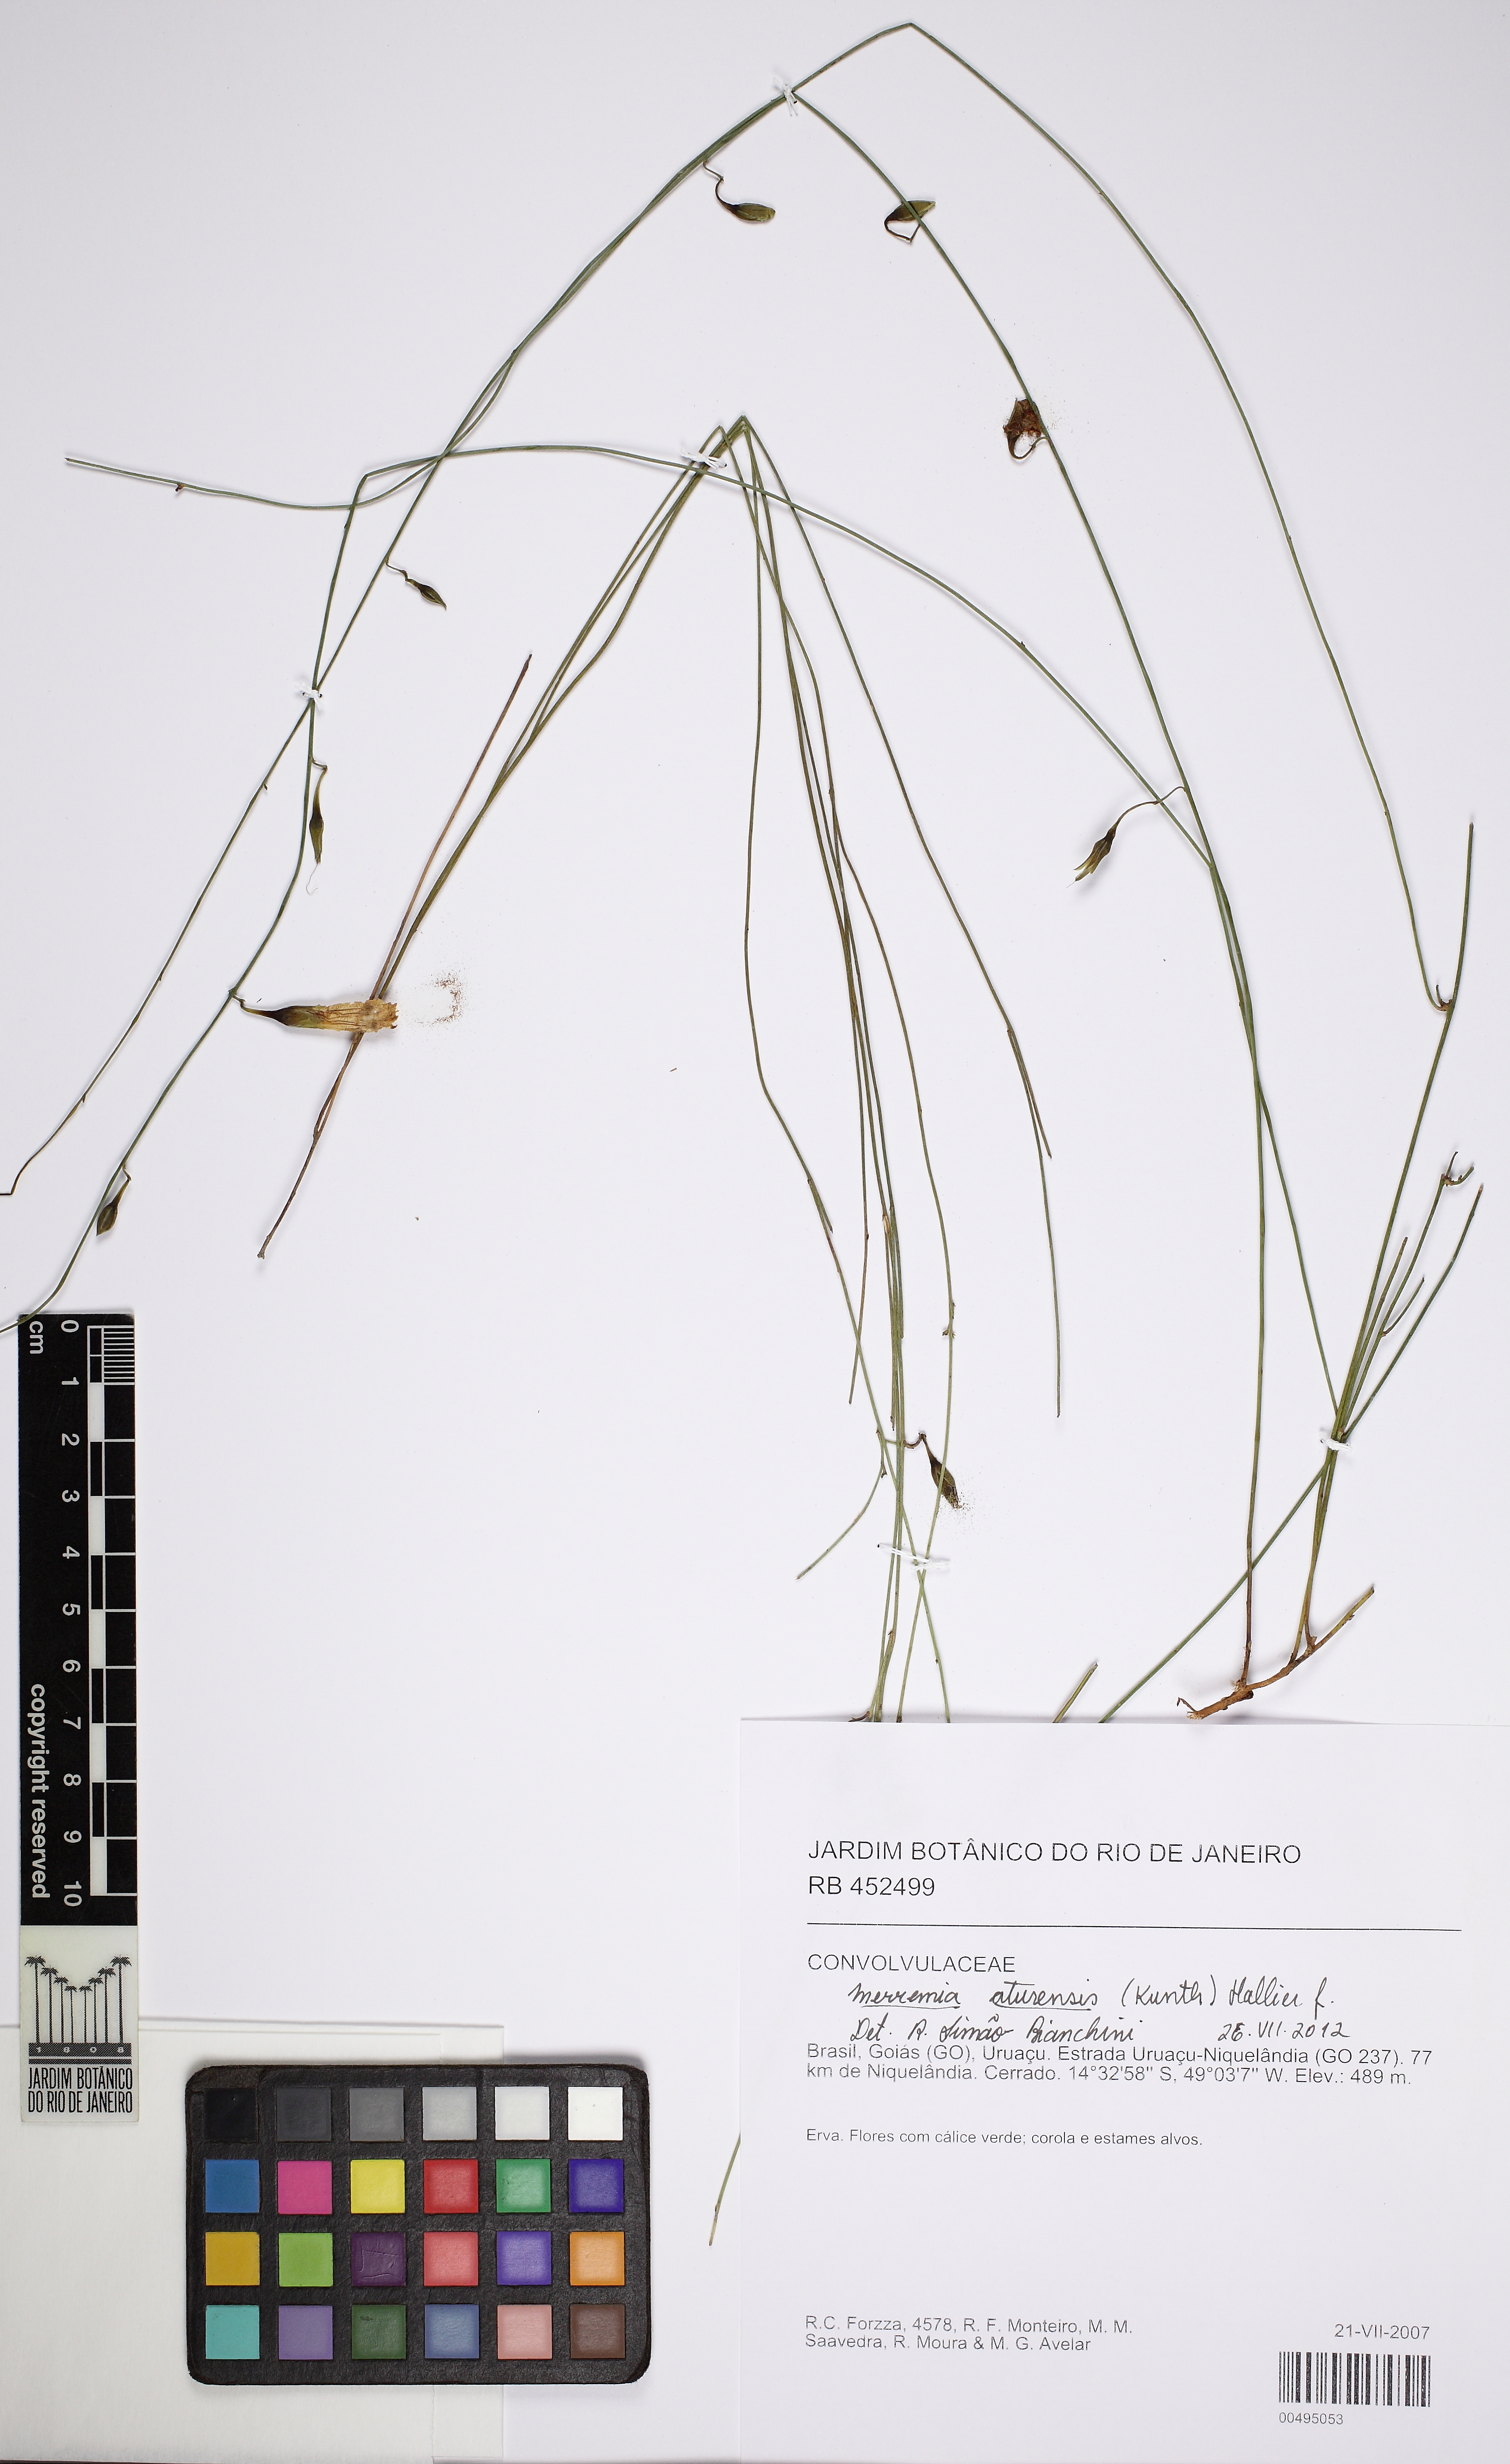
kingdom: Plantae
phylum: Tracheophyta
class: Magnoliopsida
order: Solanales
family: Convolvulaceae
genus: Distimake
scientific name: Distimake aturensis
